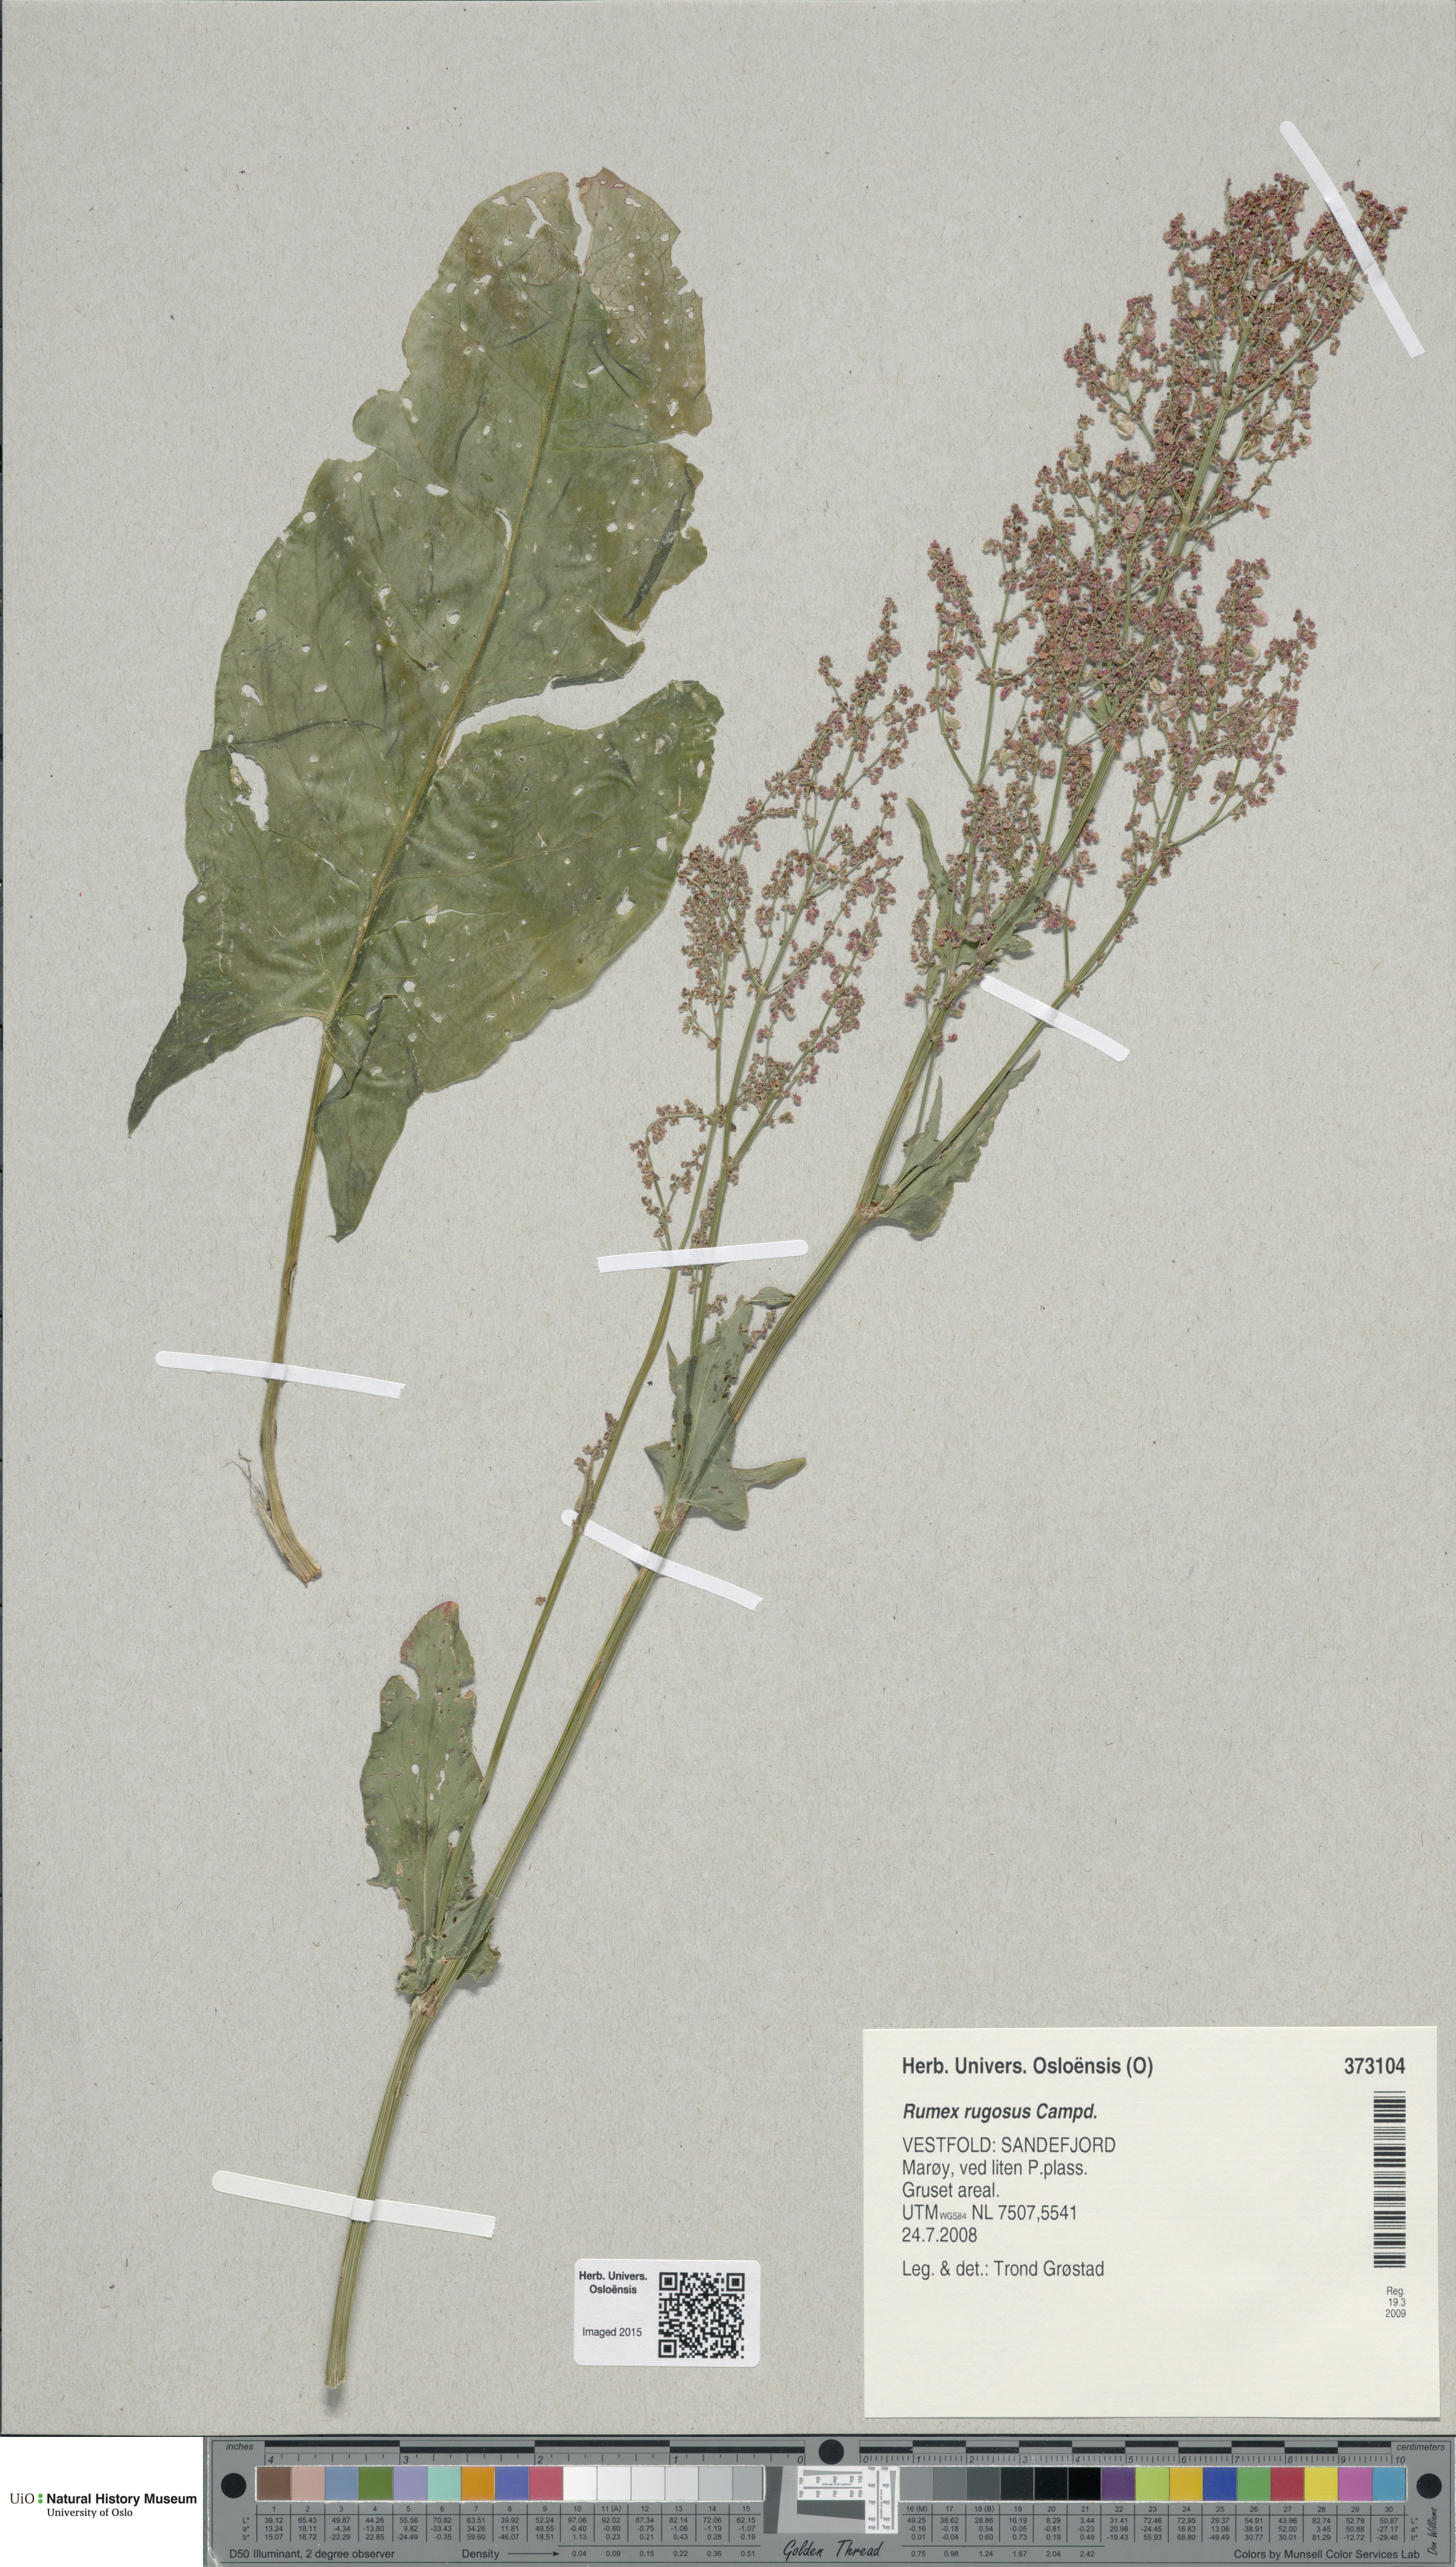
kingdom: Plantae
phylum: Tracheophyta
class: Magnoliopsida
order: Caryophyllales
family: Polygonaceae
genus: Rumex
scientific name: Rumex rugosus
